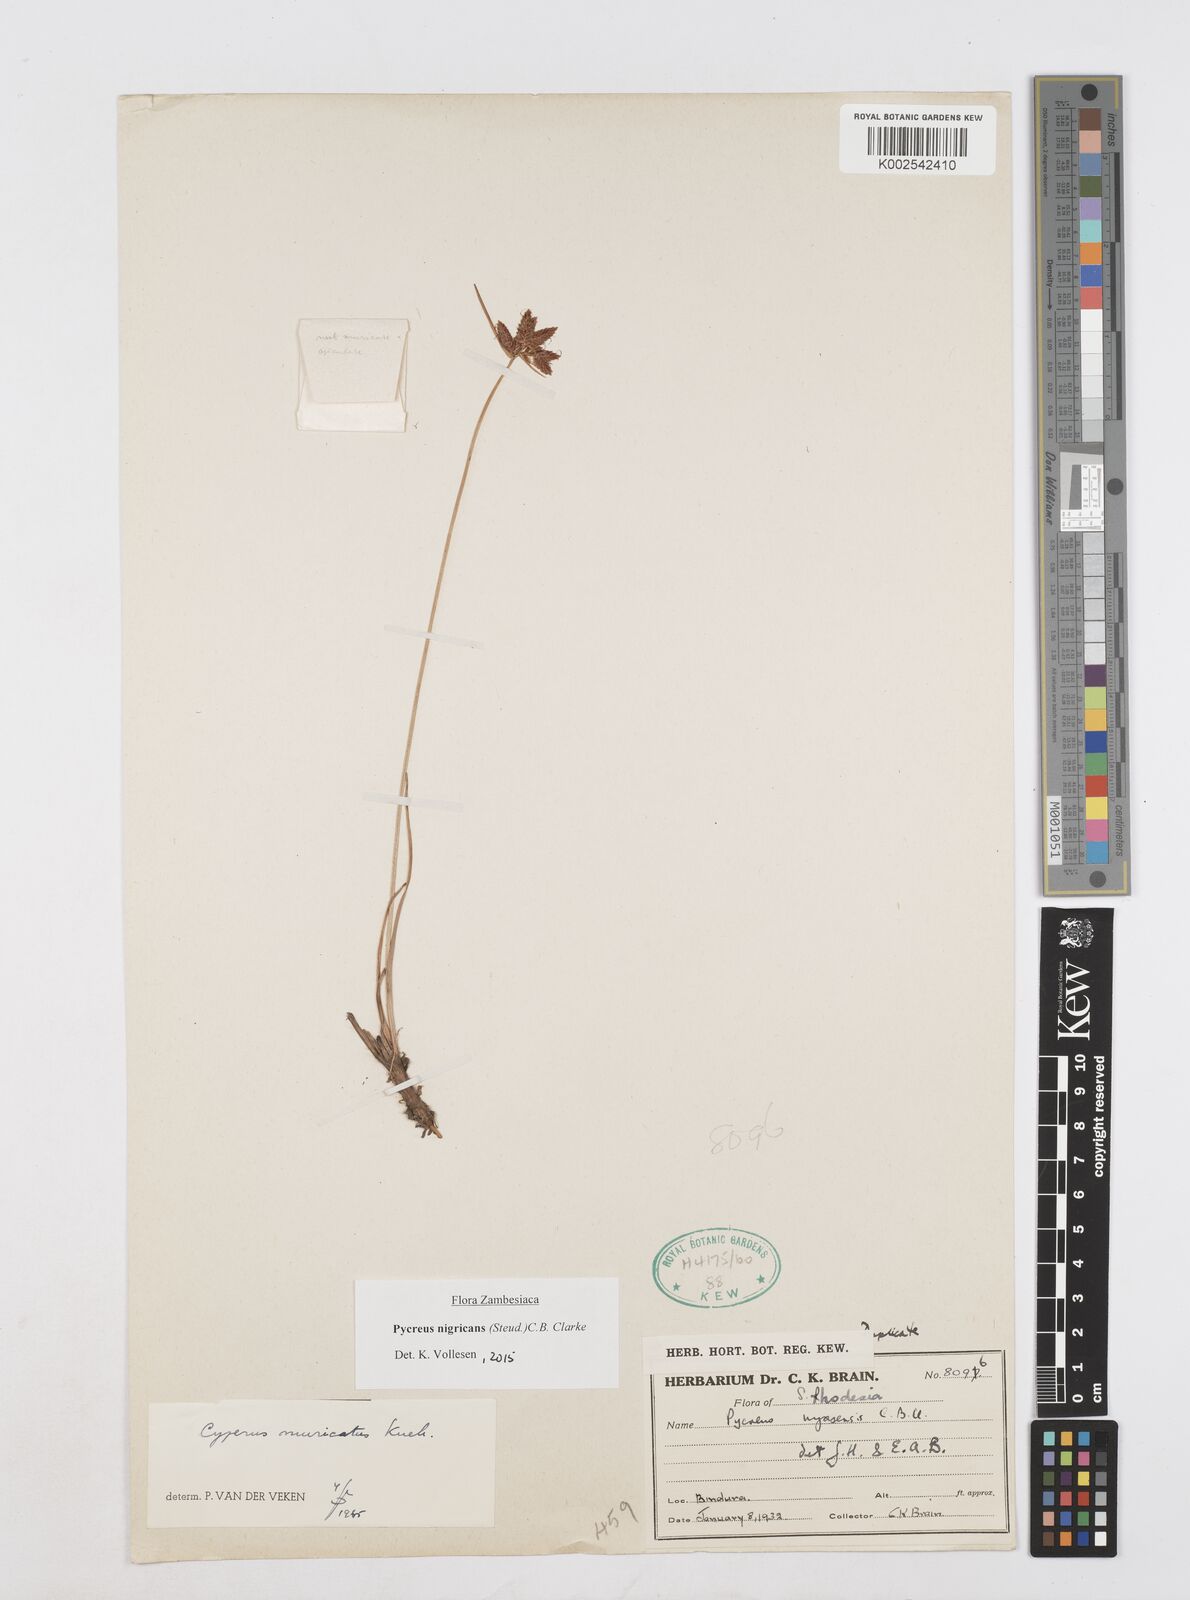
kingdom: Plantae
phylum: Tracheophyta
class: Liliopsida
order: Poales
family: Cyperaceae
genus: Cyperus
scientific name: Cyperus nigricans
